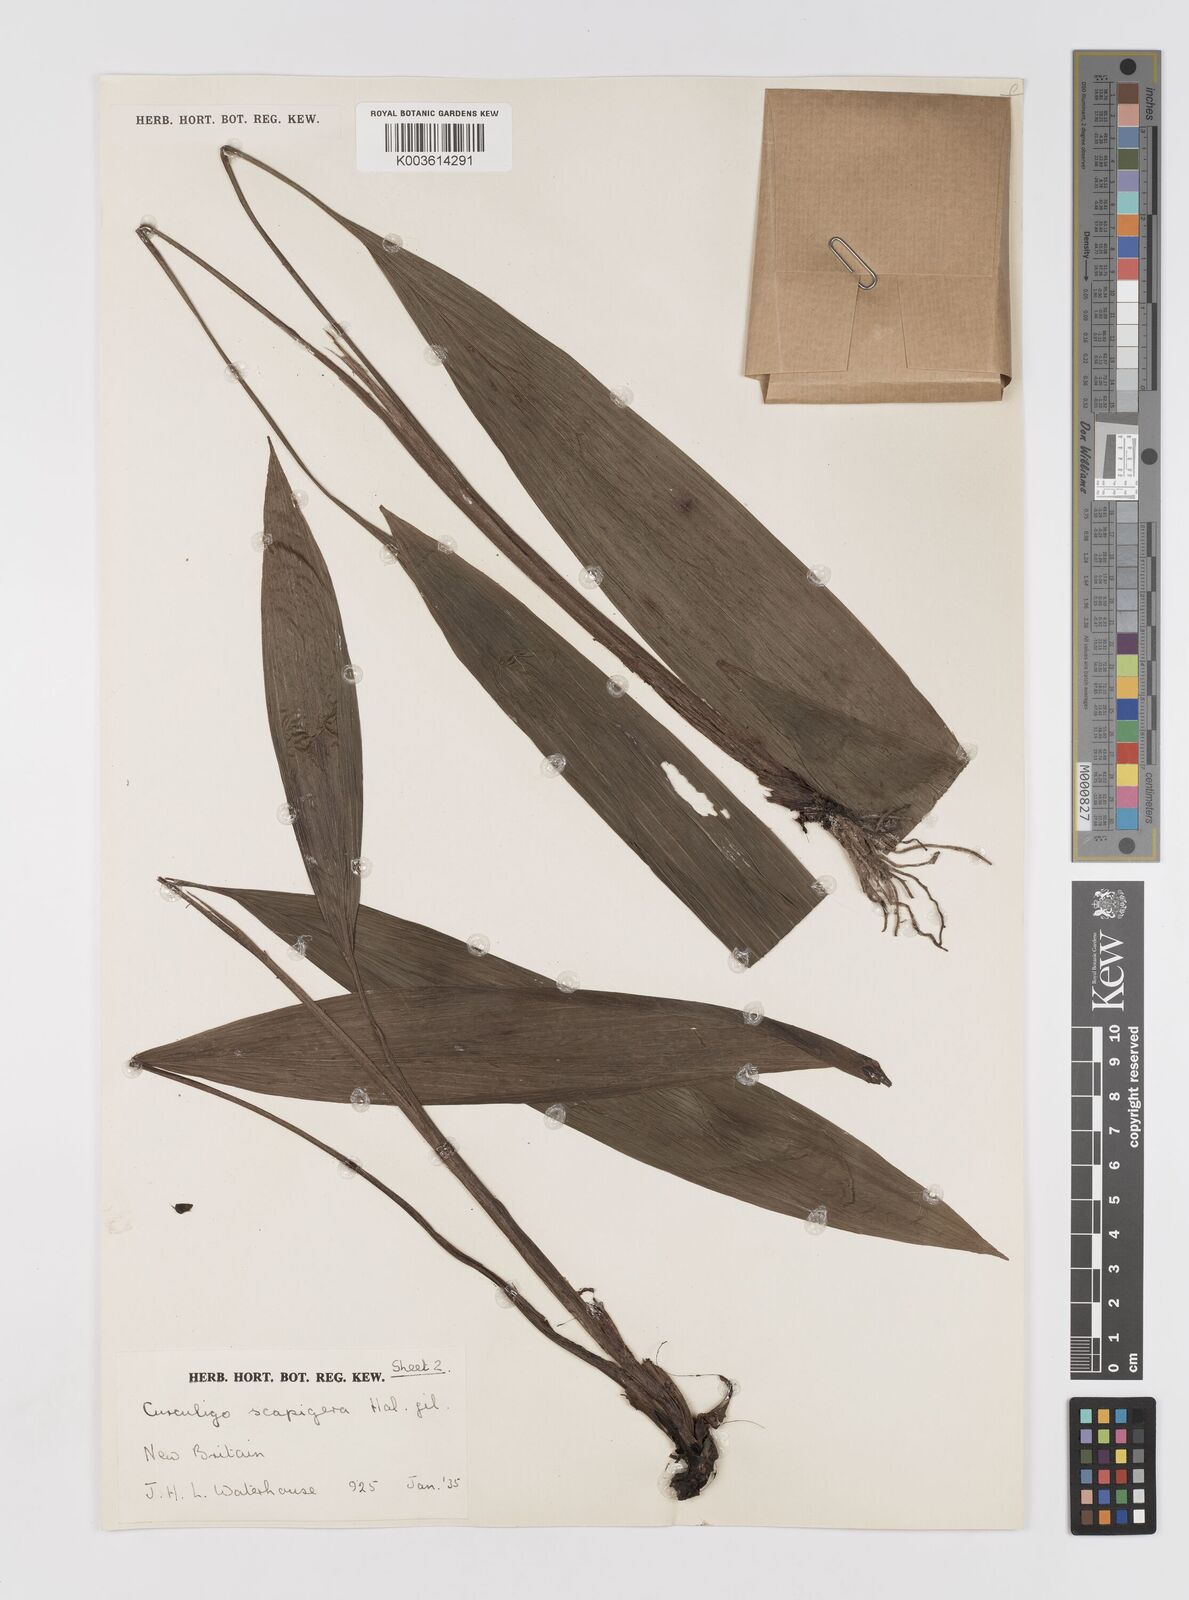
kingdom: Plantae
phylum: Tracheophyta
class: Liliopsida
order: Asparagales
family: Hypoxidaceae
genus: Curculigo
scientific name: Curculigo erecta
